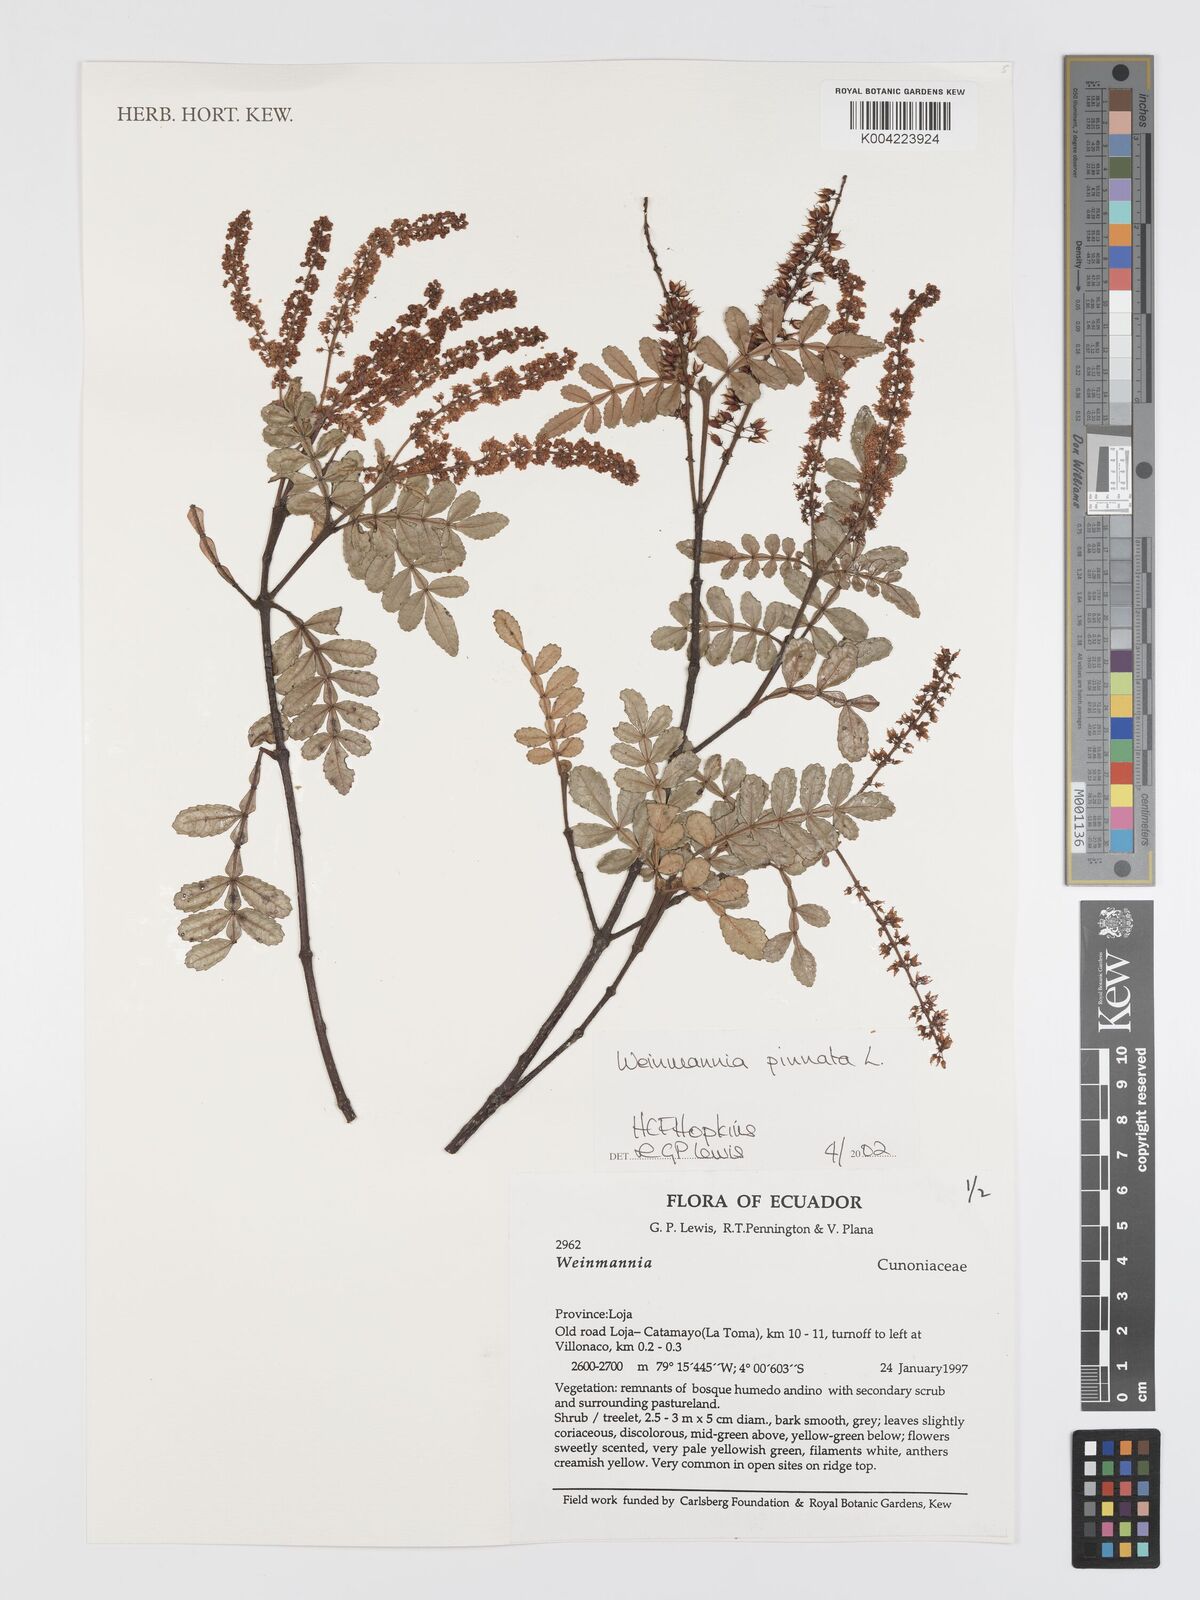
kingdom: Plantae
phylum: Tracheophyta
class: Magnoliopsida
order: Oxalidales
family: Cunoniaceae
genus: Weinmannia
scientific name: Weinmannia pinnata
